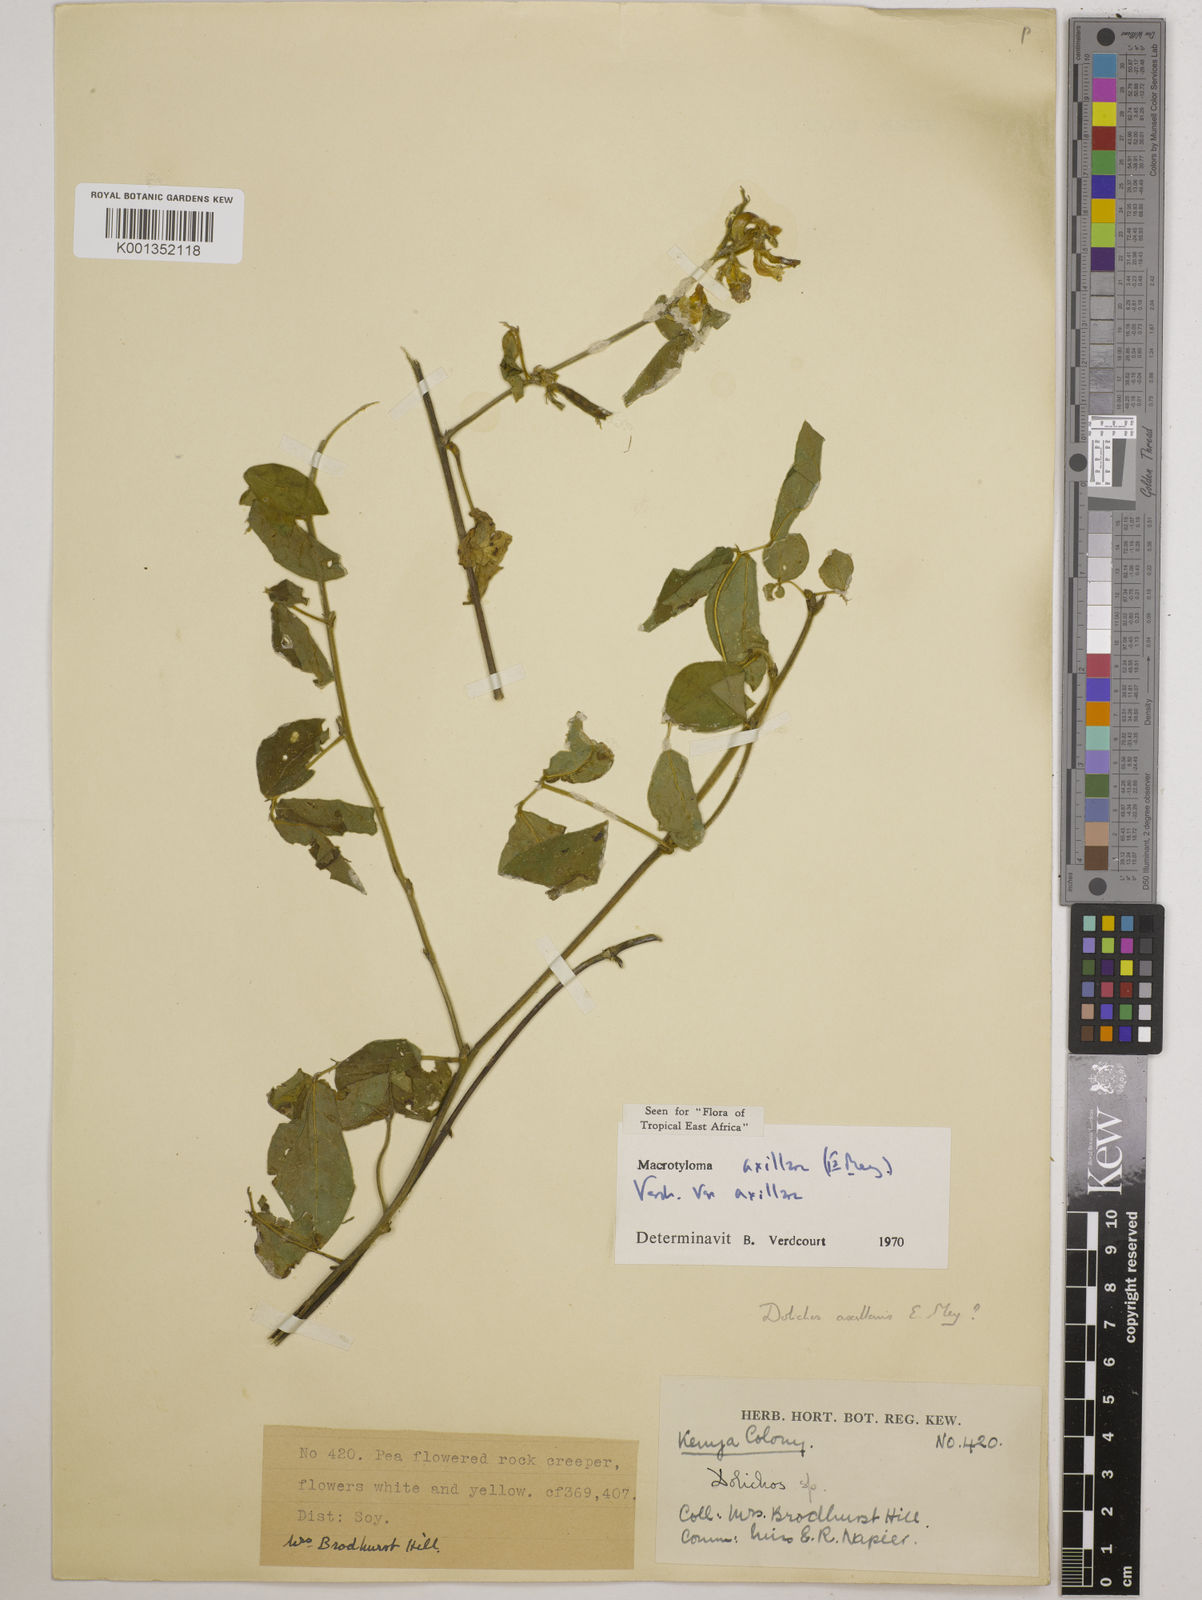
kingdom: Plantae
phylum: Tracheophyta
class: Magnoliopsida
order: Fabales
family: Fabaceae
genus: Macrotyloma
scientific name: Macrotyloma axillare
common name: Perennial horsegram
